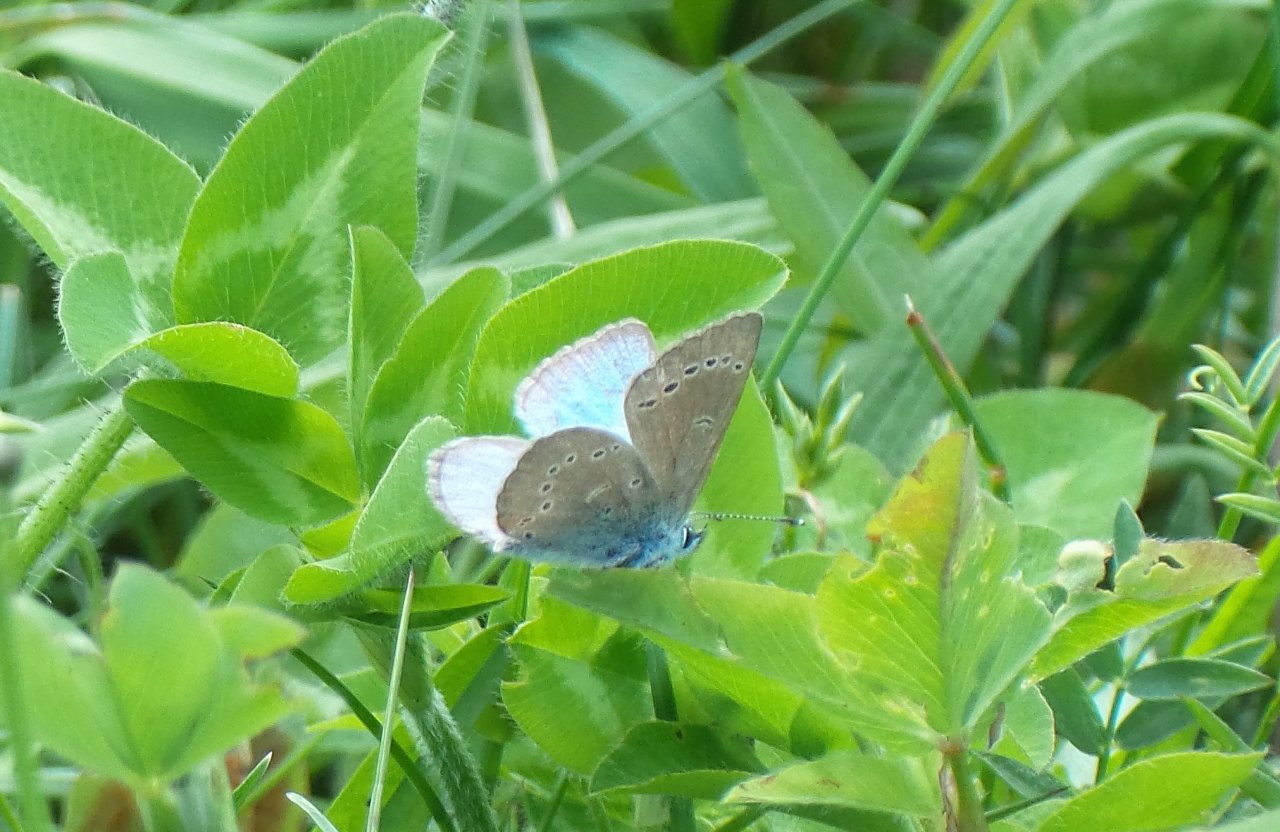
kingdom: Animalia
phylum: Arthropoda
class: Insecta
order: Lepidoptera
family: Lycaenidae
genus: Glaucopsyche
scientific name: Glaucopsyche lygdamus
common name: Silvery Blue
